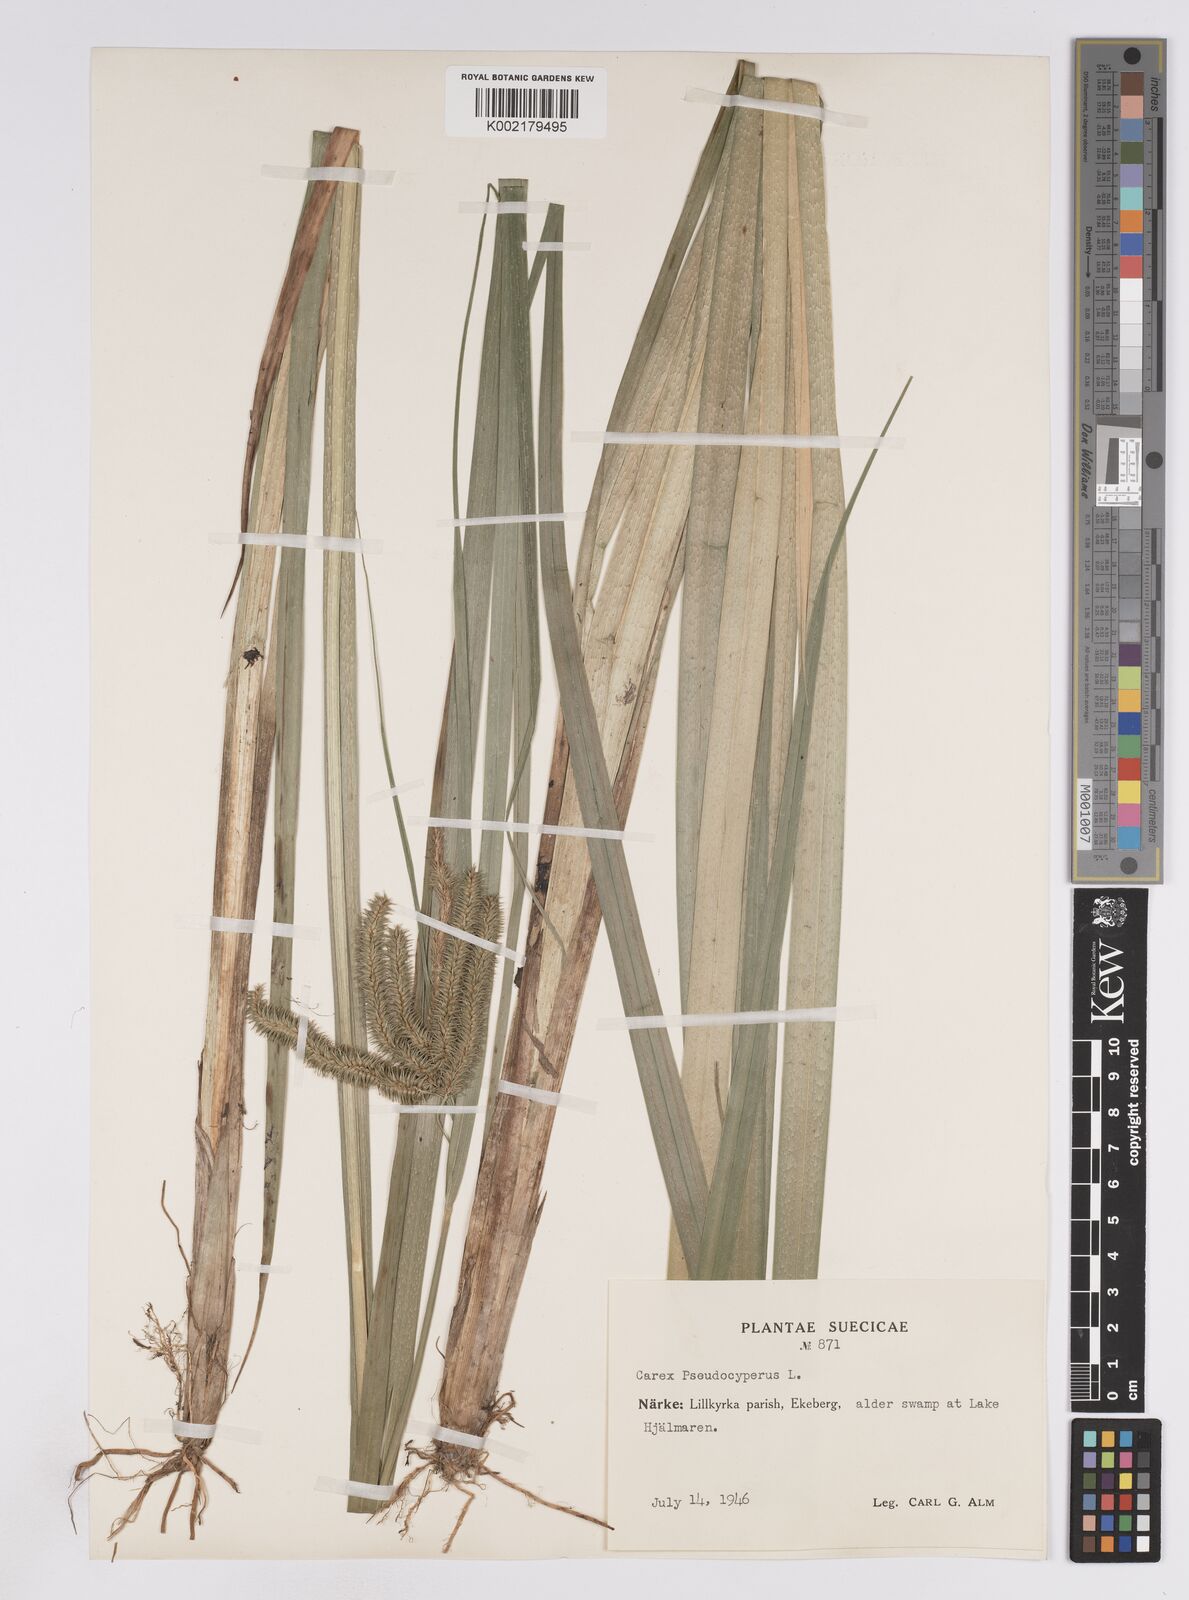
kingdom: Plantae
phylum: Tracheophyta
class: Liliopsida
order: Poales
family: Cyperaceae
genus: Carex
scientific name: Carex pseudocyperus
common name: Cyperus sedge
